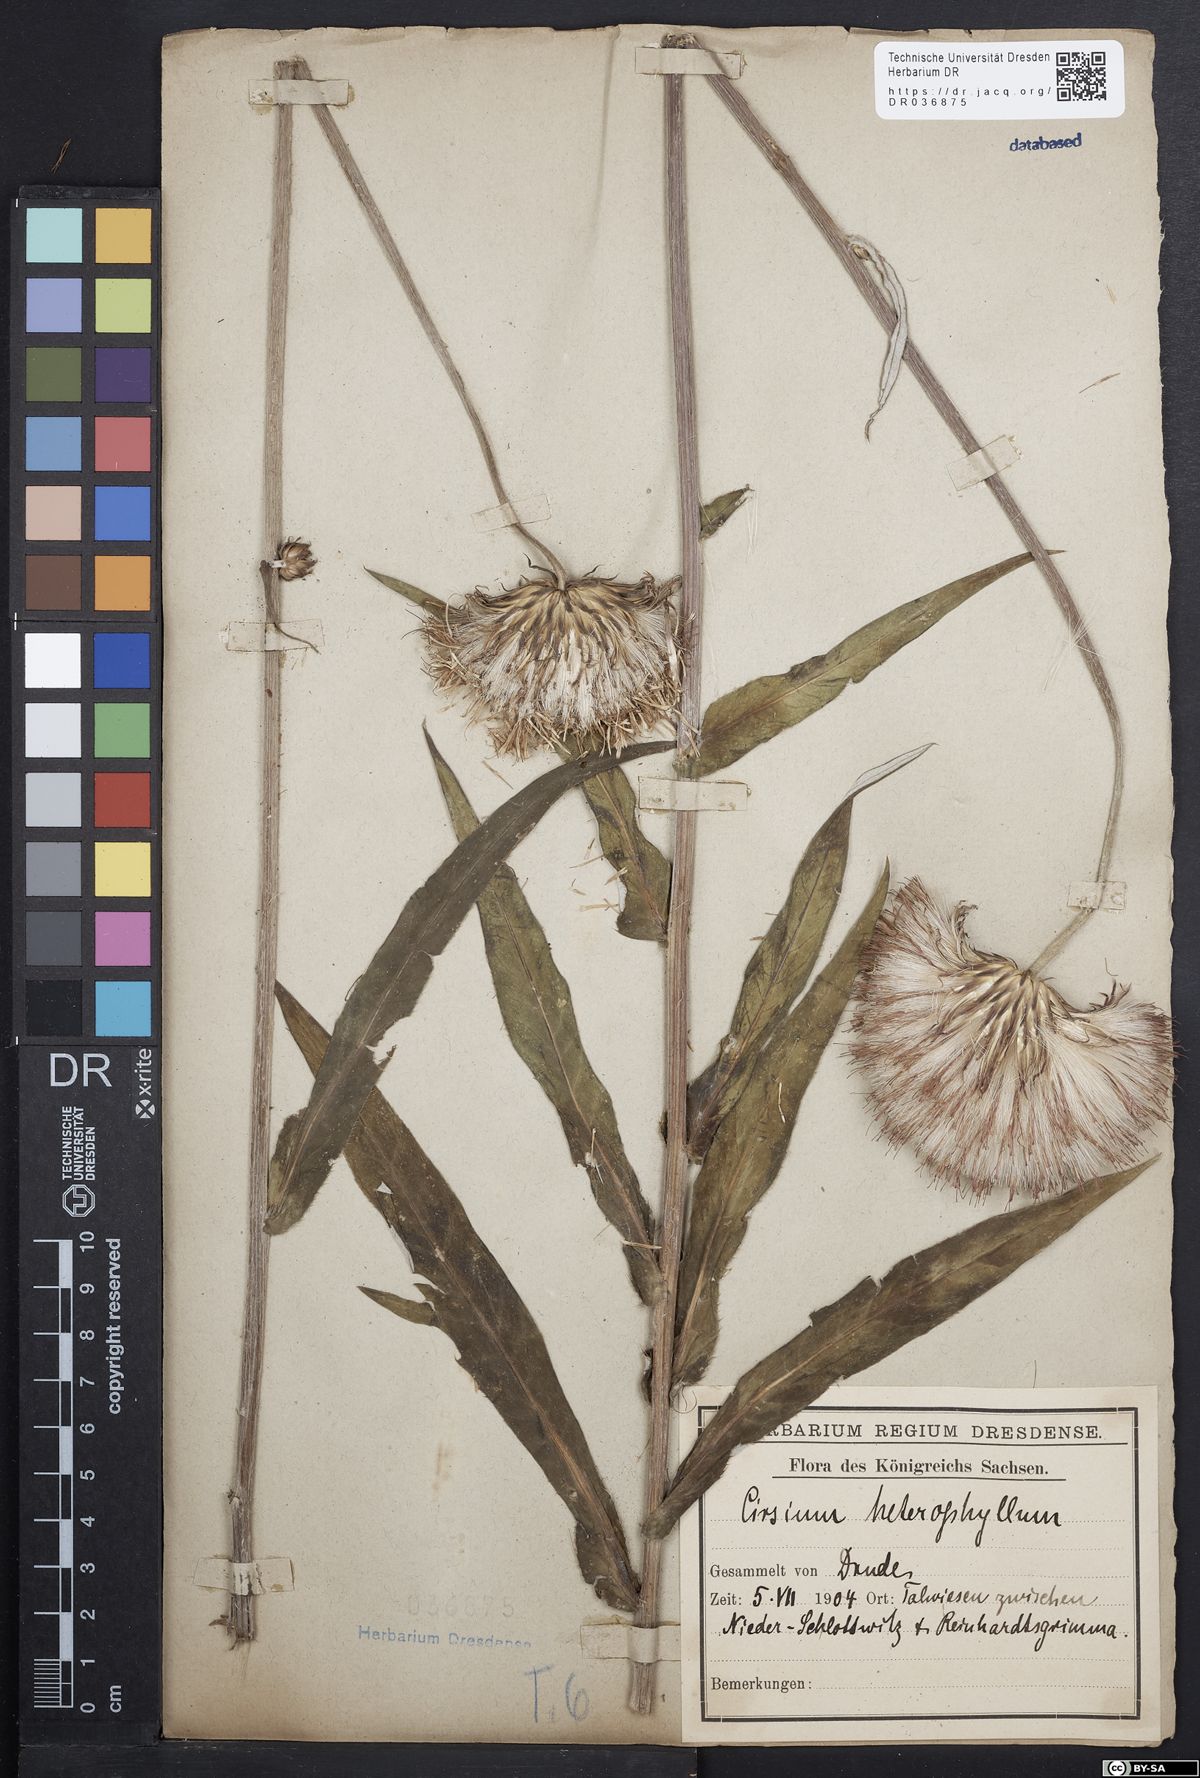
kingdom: Plantae
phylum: Tracheophyta
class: Magnoliopsida
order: Asterales
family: Asteraceae
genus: Cirsium
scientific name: Cirsium helenioides
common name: Melancholy thistle
